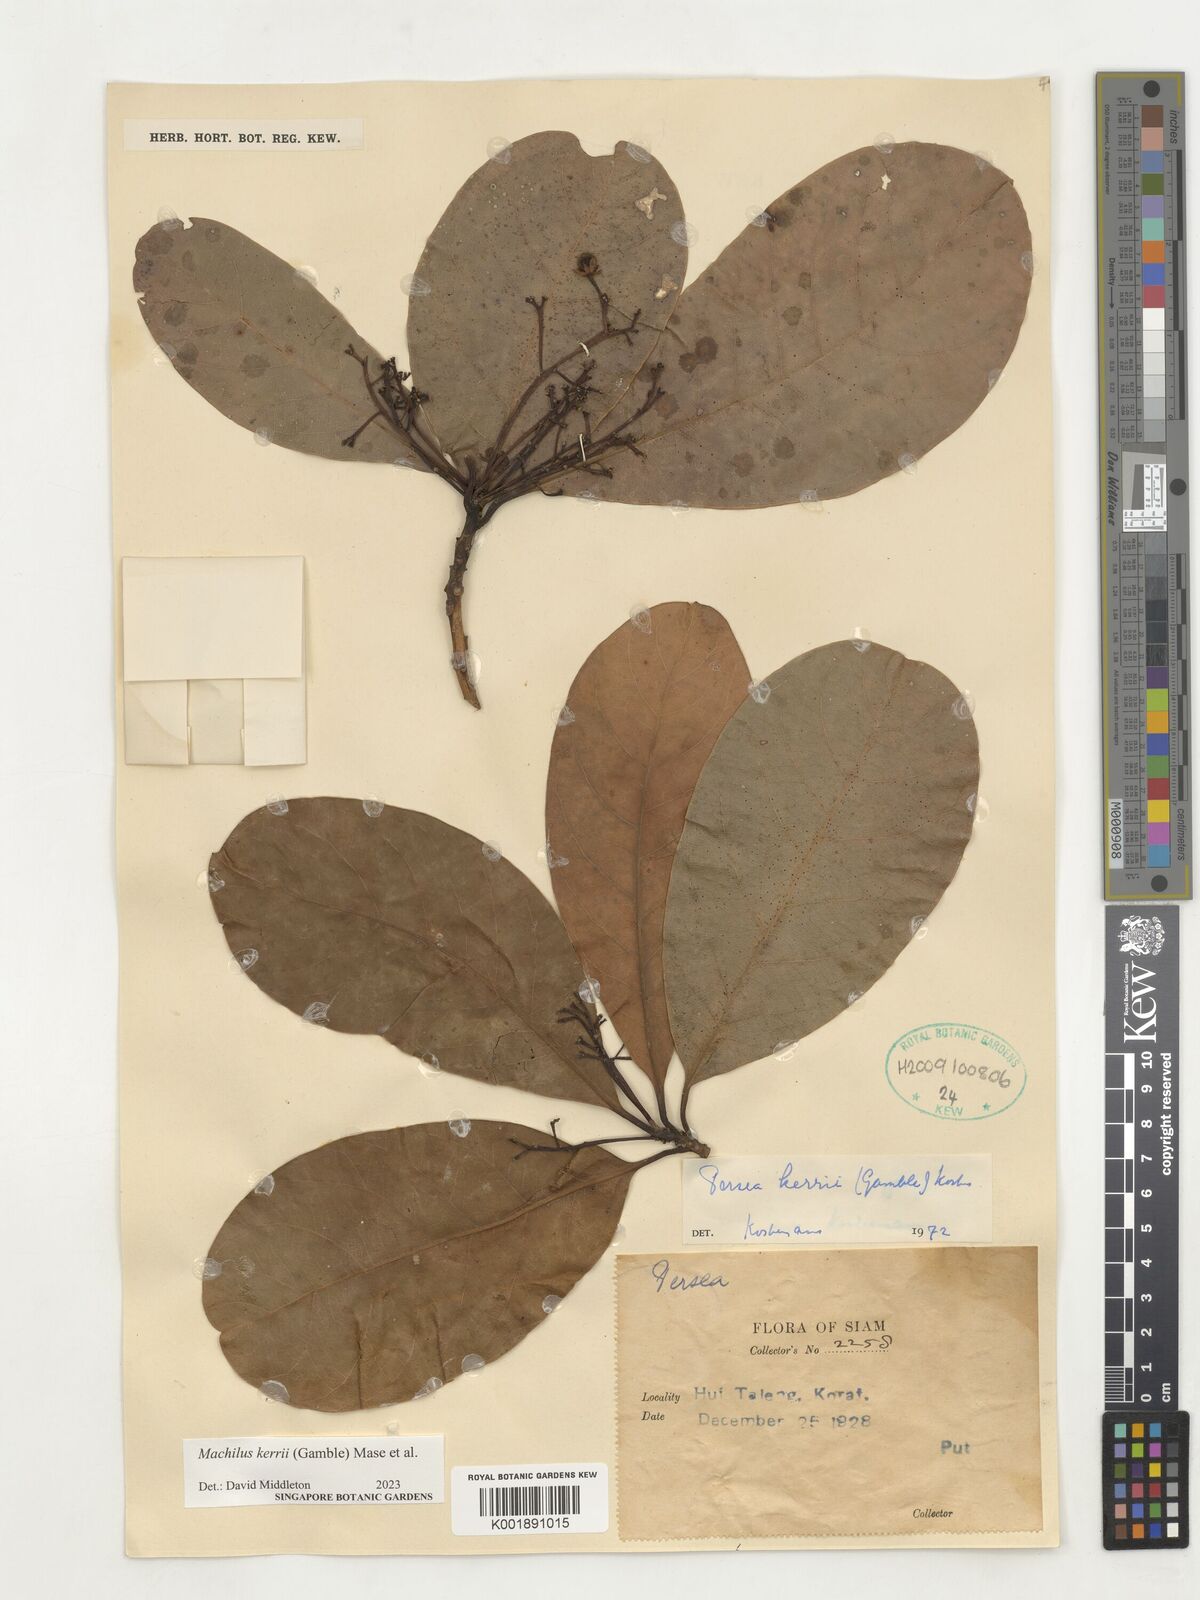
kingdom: Plantae
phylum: Tracheophyta
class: Magnoliopsida
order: Laurales
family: Lauraceae
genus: Machilus
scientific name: Machilus
